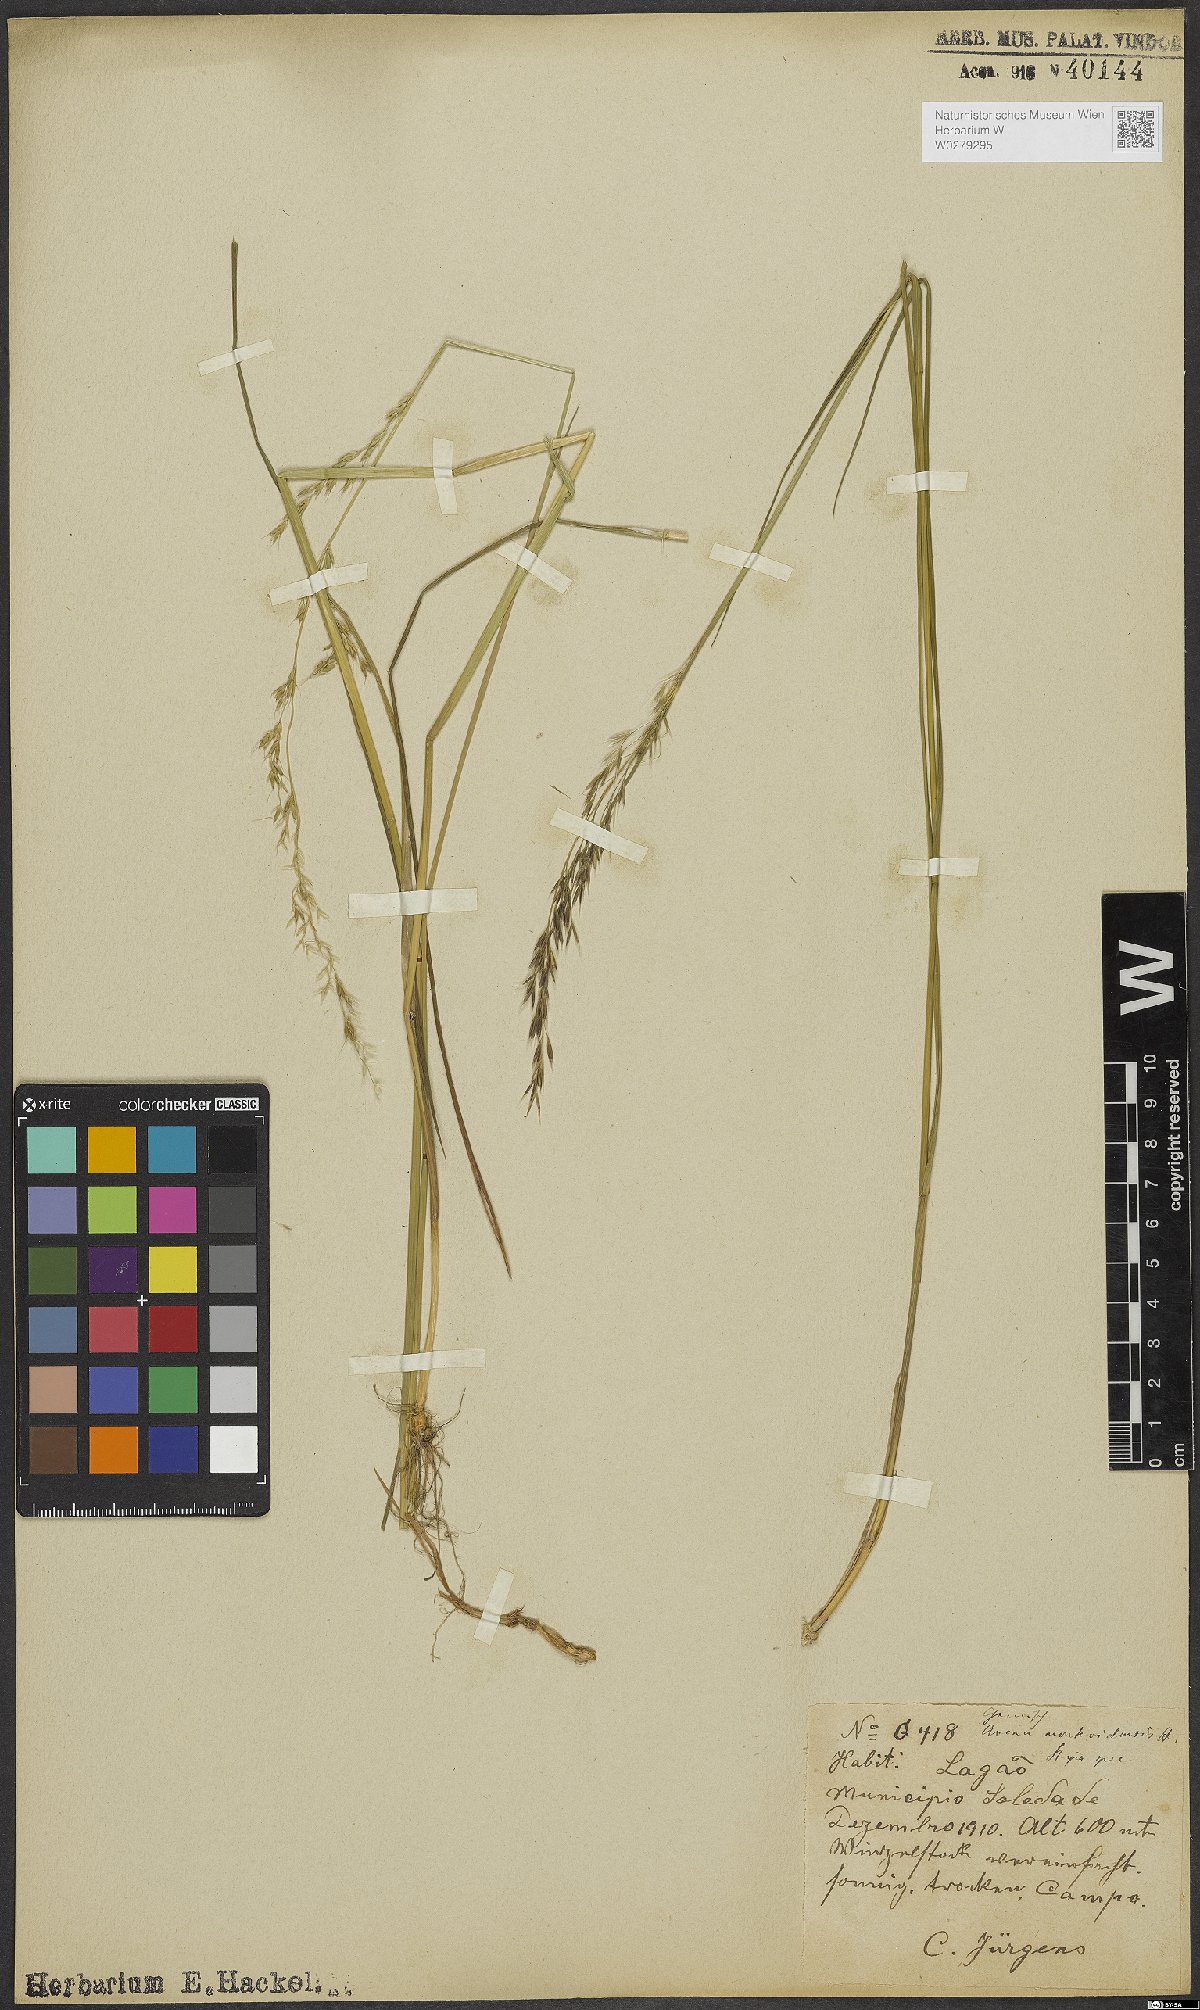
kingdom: Plantae
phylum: Tracheophyta
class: Liliopsida
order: Poales
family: Poaceae
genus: Amphibromus
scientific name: Amphibromus quadridentulus
